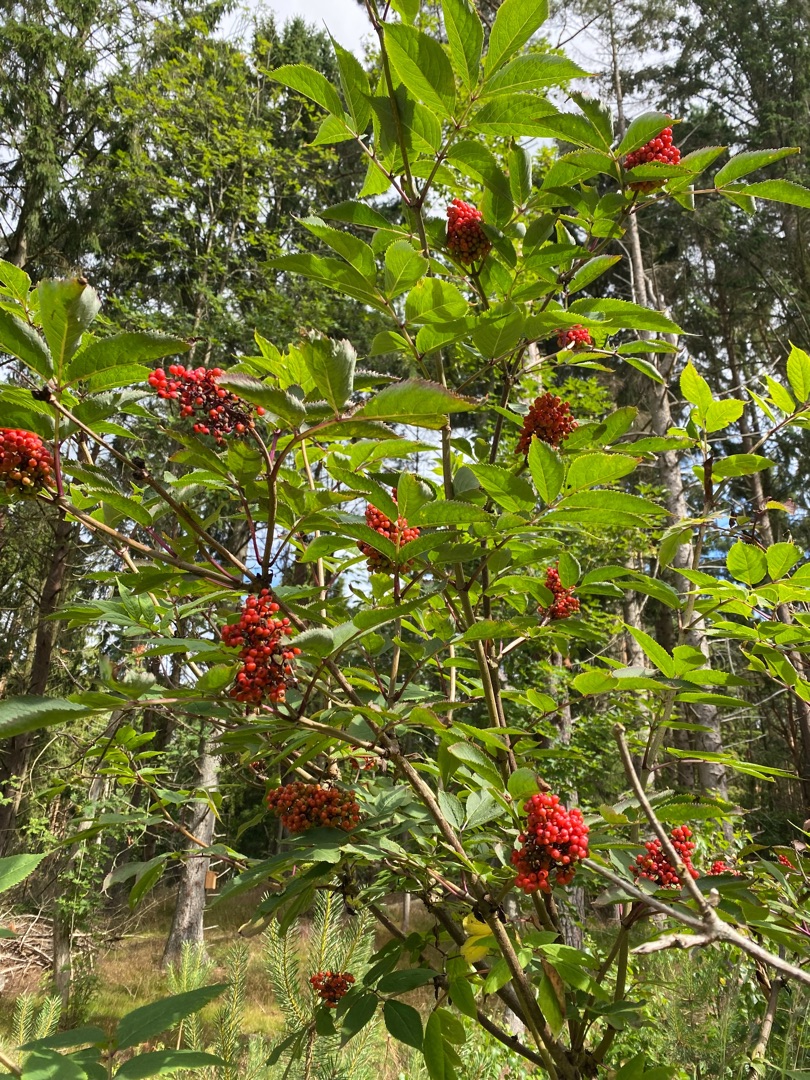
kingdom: Plantae
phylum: Tracheophyta
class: Magnoliopsida
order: Dipsacales
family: Viburnaceae
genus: Sambucus
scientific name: Sambucus racemosa
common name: Drue-hyld
